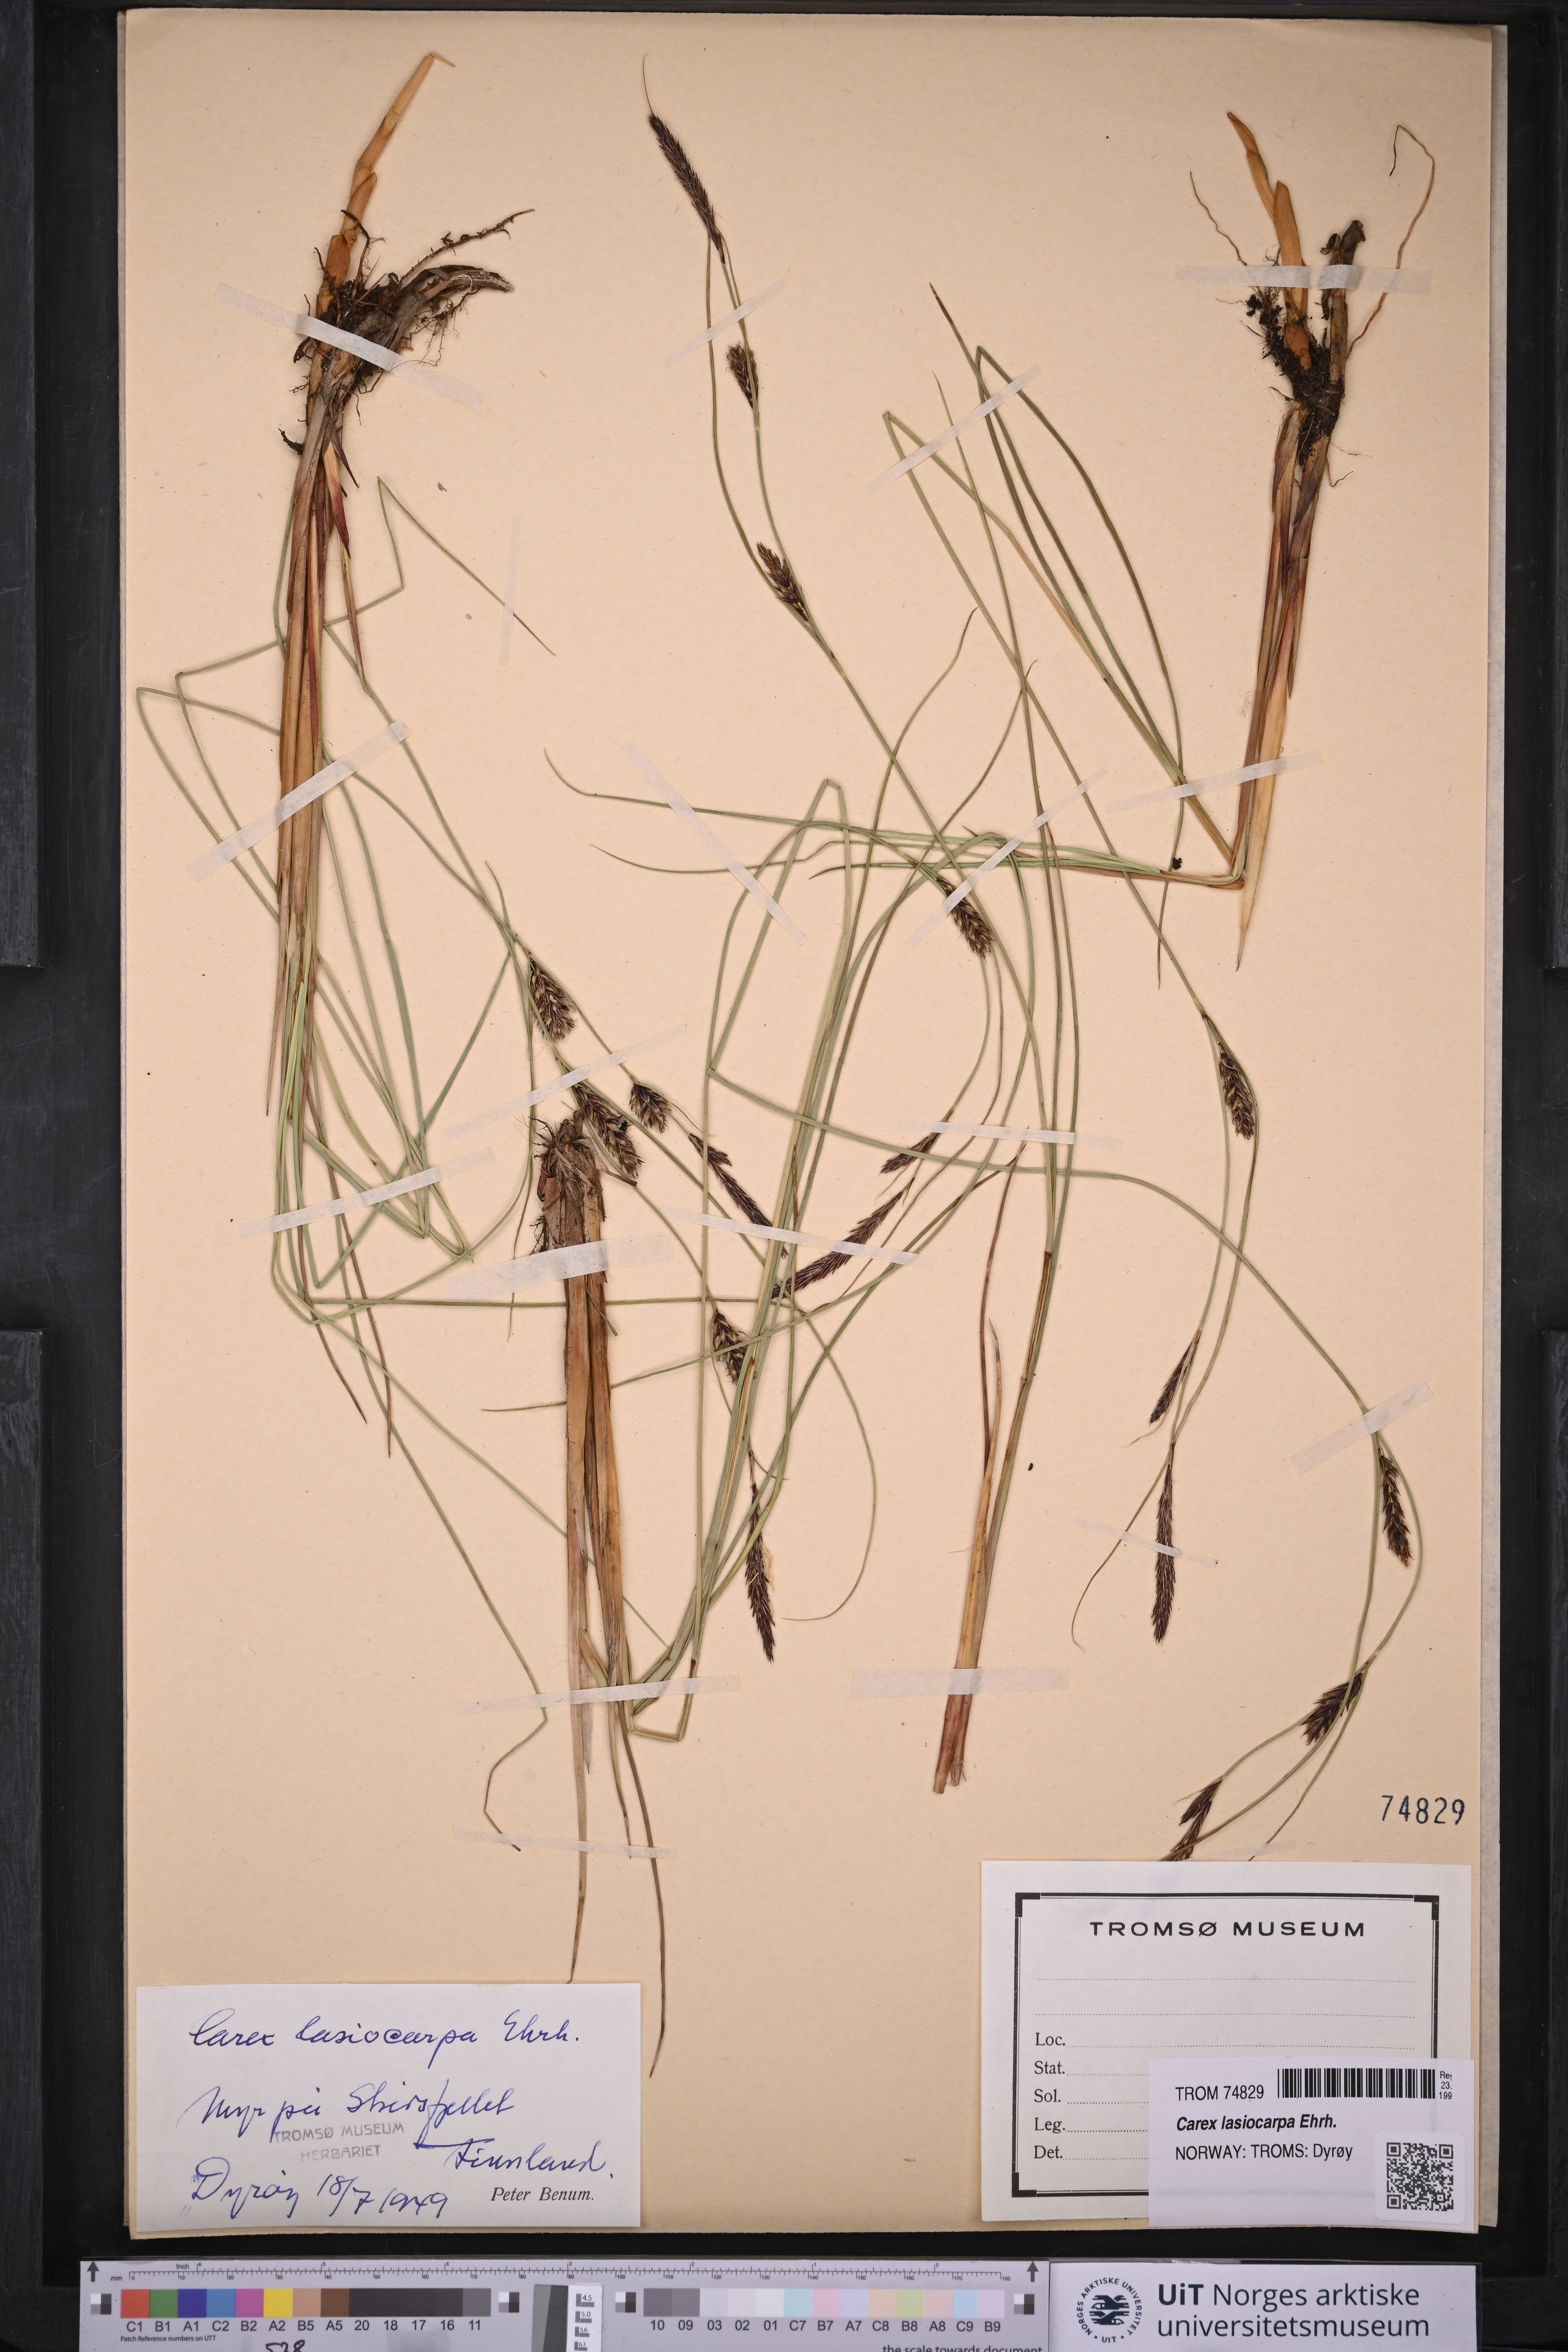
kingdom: Plantae
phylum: Tracheophyta
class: Liliopsida
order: Poales
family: Cyperaceae
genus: Carex
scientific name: Carex lasiocarpa
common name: Slender sedge
